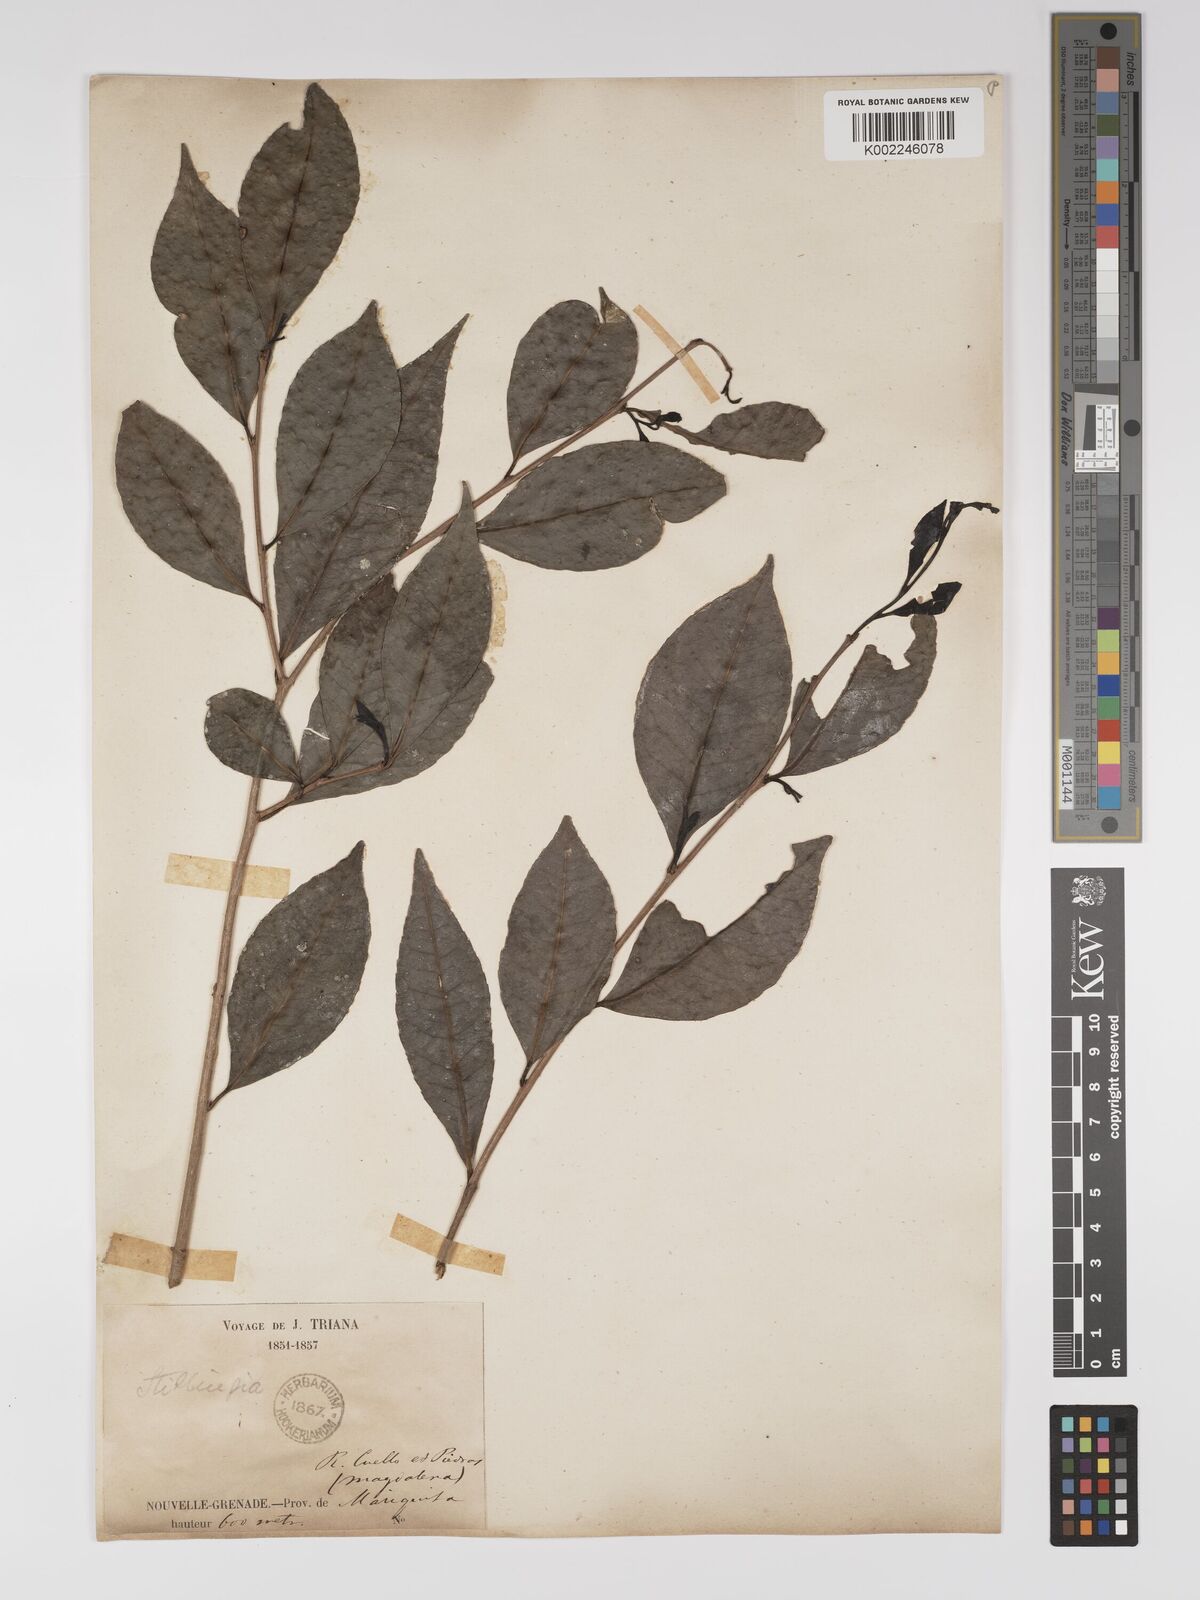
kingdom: Plantae
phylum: Tracheophyta
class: Magnoliopsida
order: Malpighiales
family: Euphorbiaceae
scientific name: Euphorbiaceae
